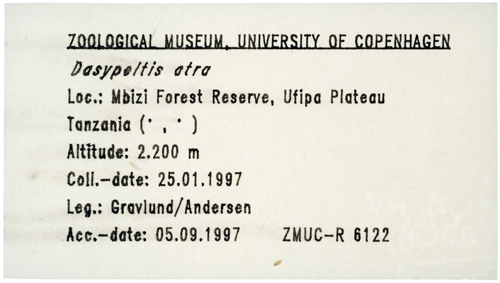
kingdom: Animalia
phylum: Chordata
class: Squamata
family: Colubridae
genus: Dasypeltis
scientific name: Dasypeltis atra
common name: African egg-eating snake
